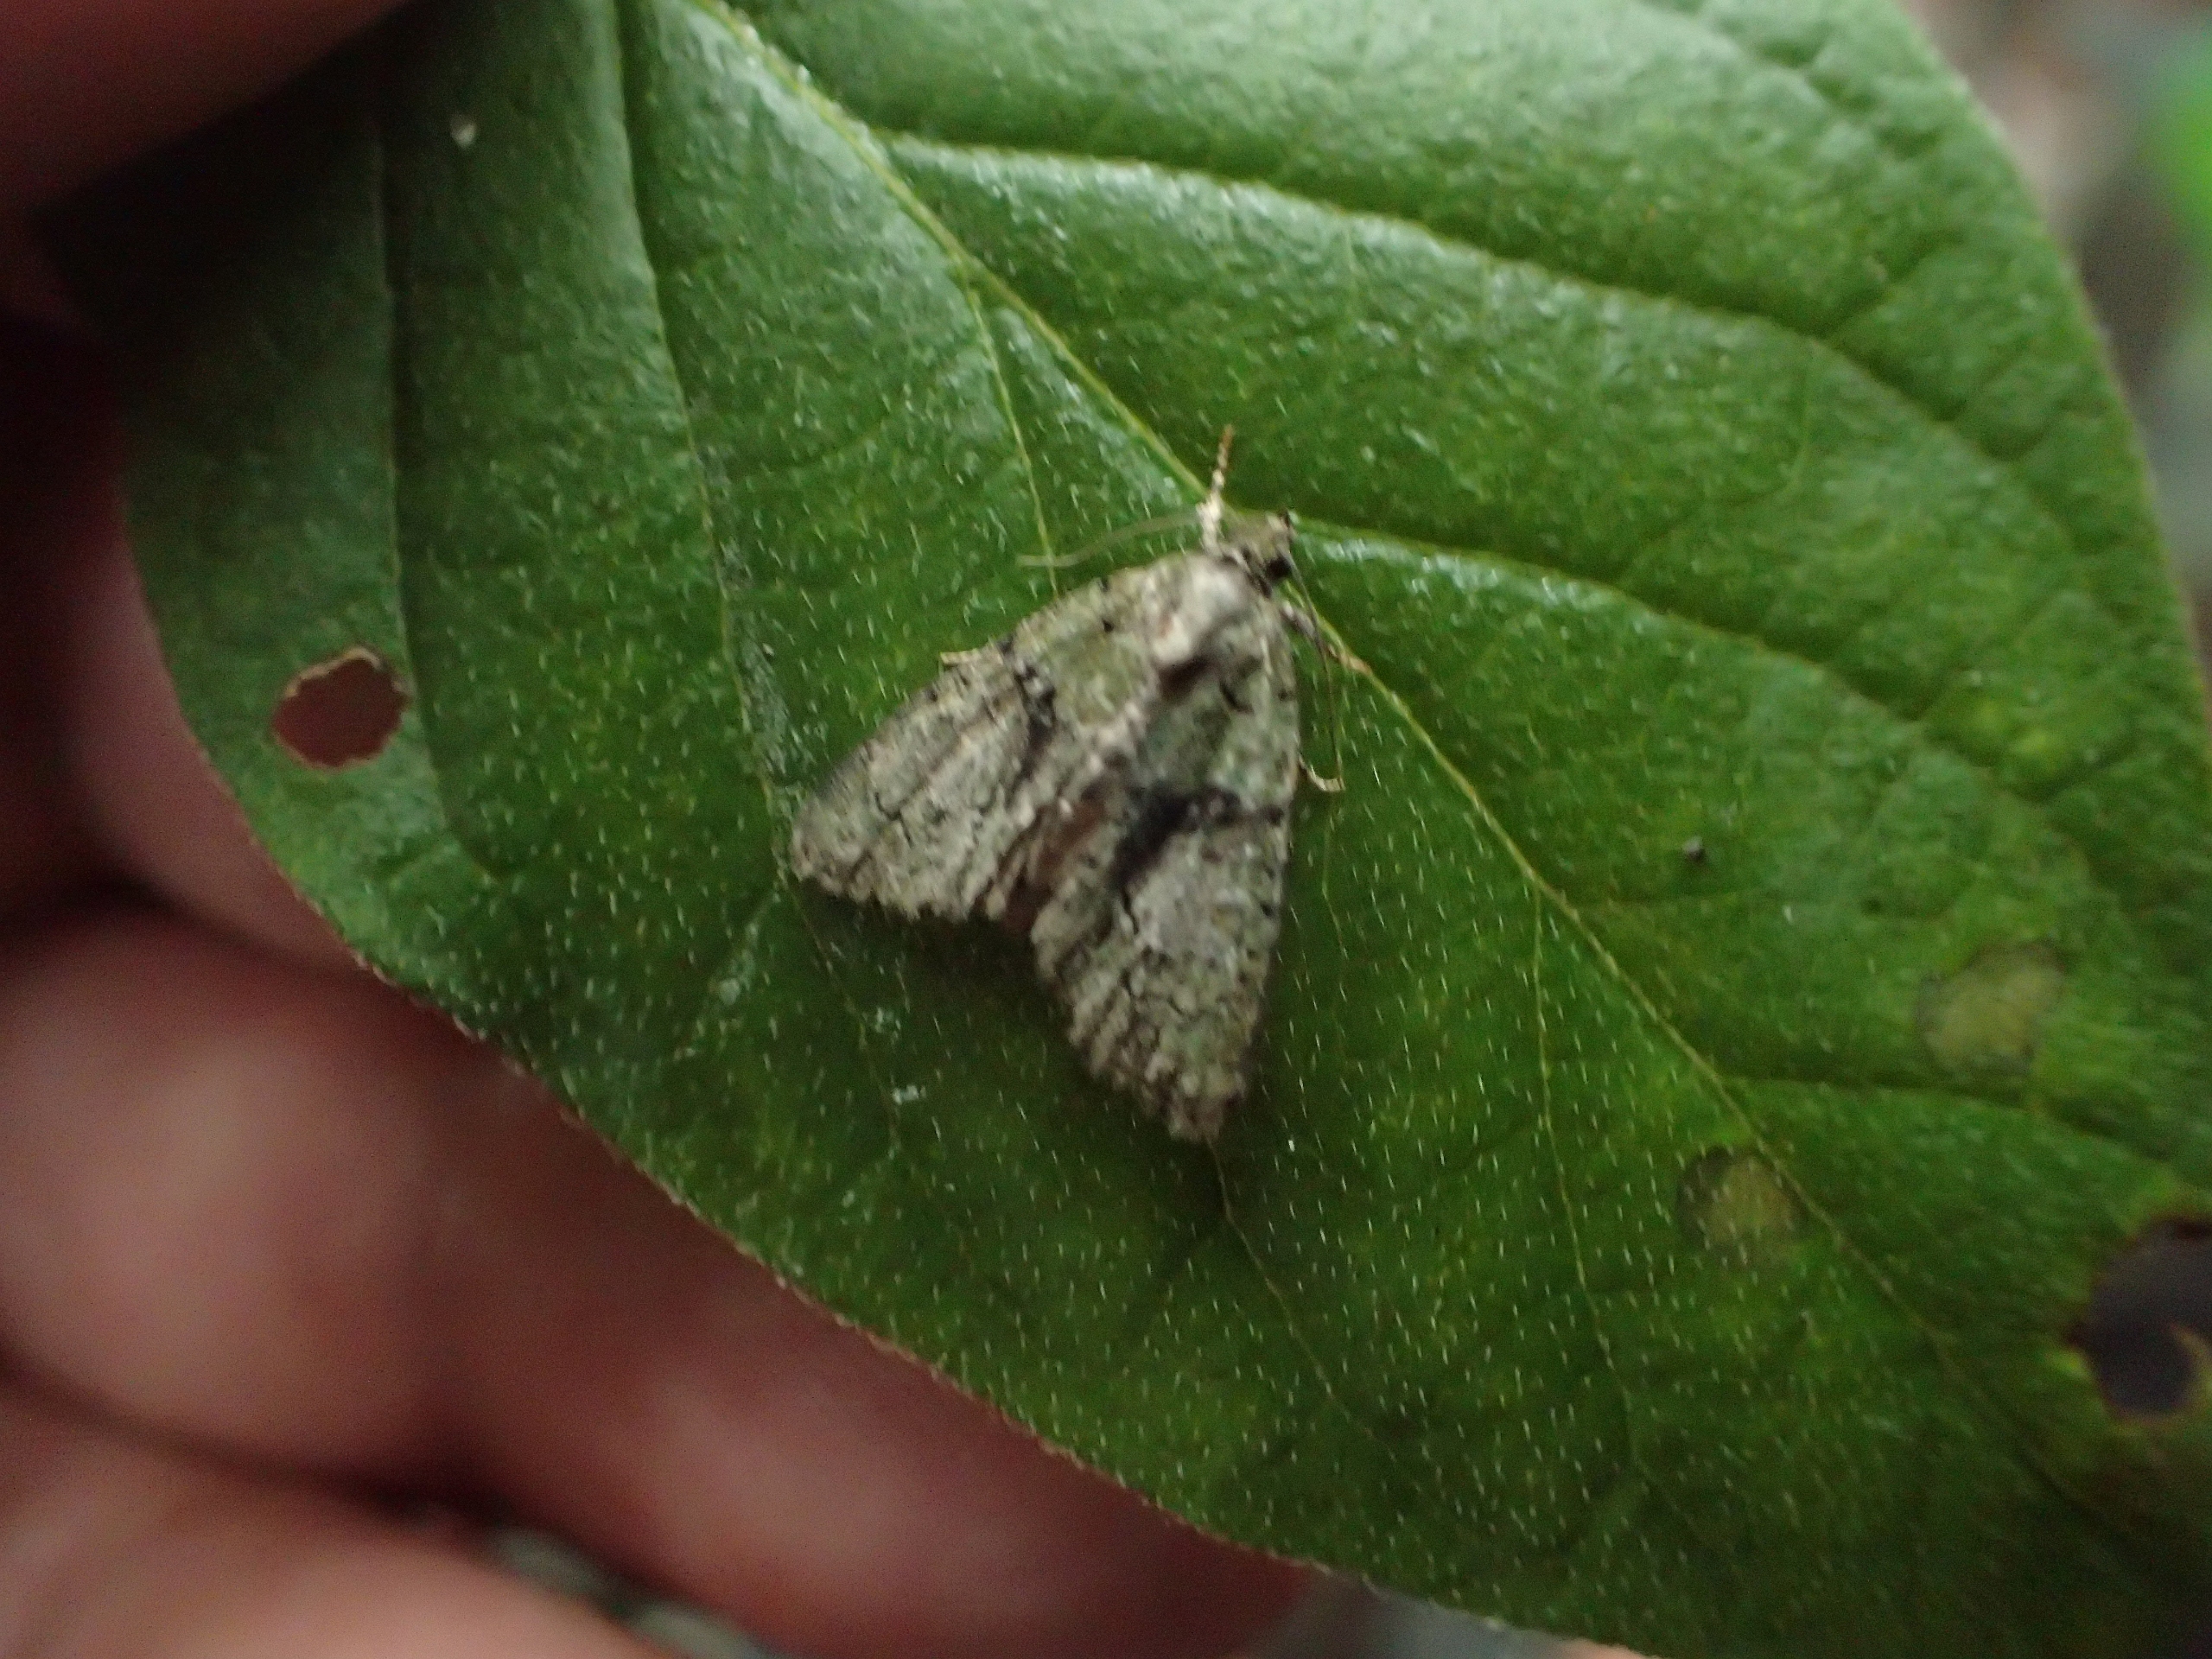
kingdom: Animalia
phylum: Arthropoda
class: Insecta
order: Lepidoptera
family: Noctuidae
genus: Cryphia
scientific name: Cryphia algae
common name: Grøn lav-ugle
